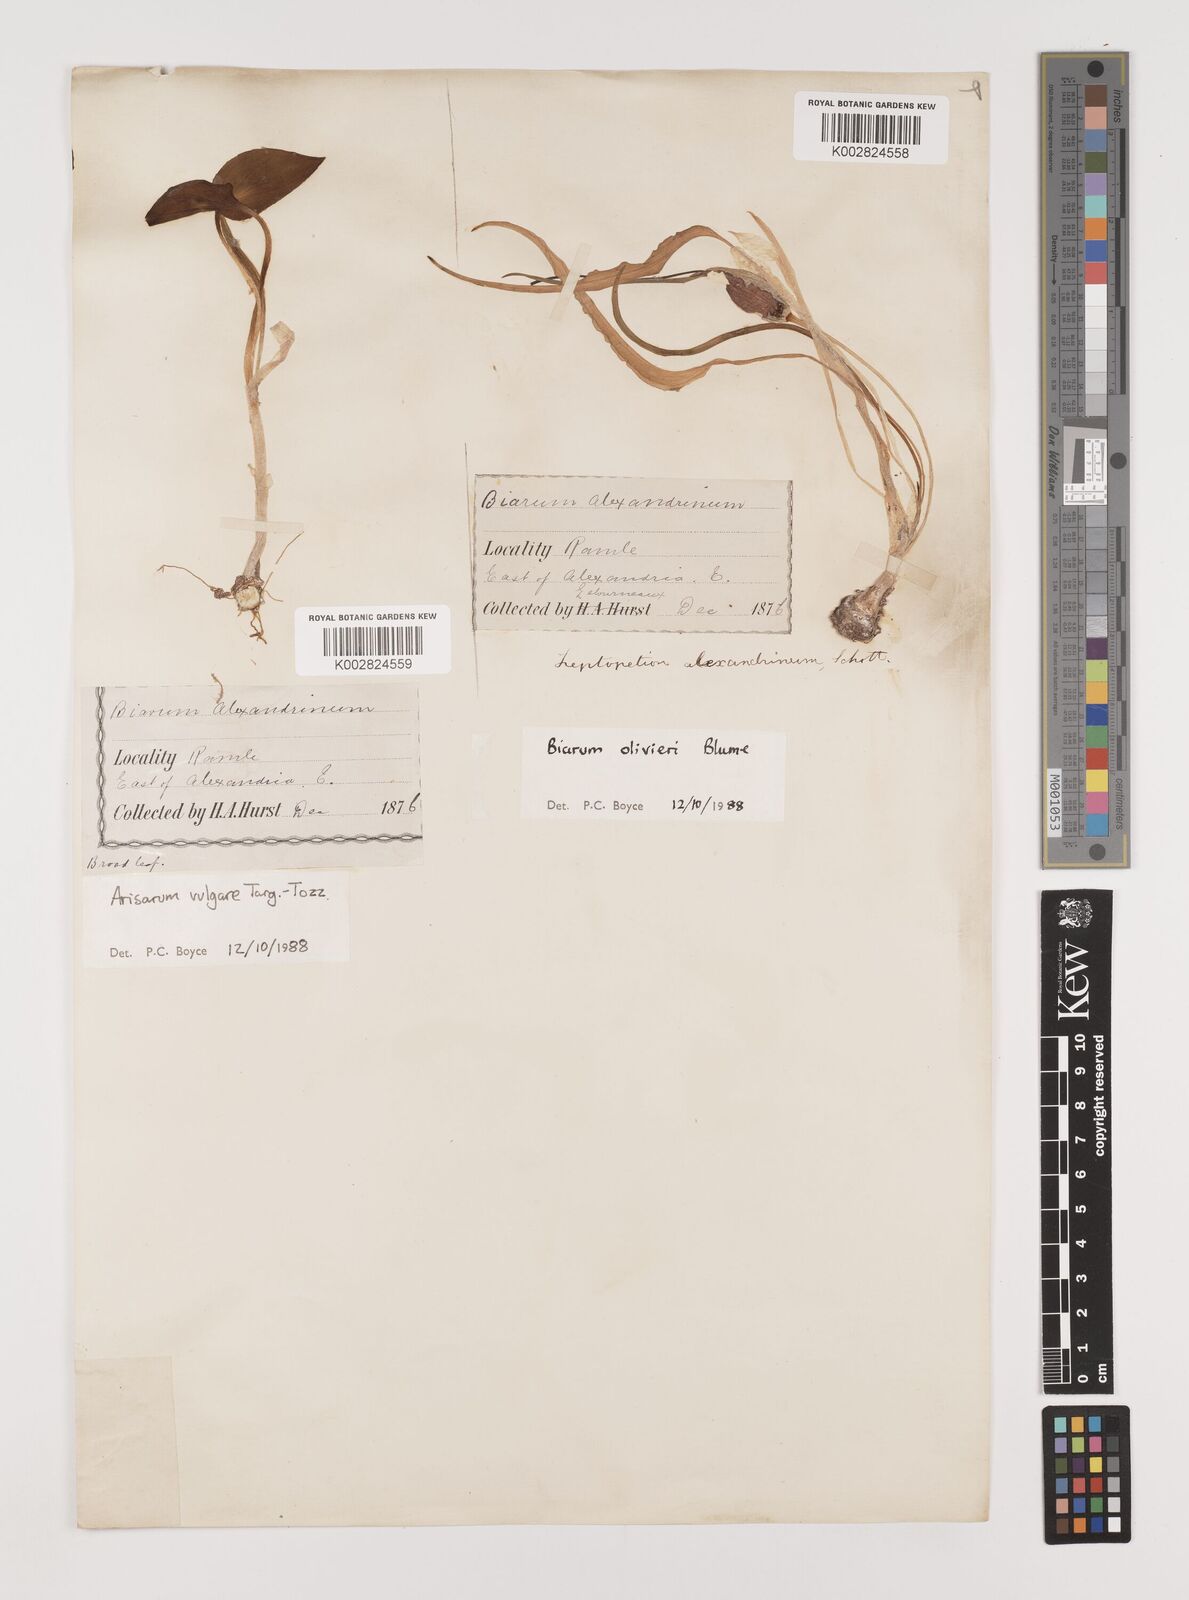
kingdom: Plantae
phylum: Tracheophyta
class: Liliopsida
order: Alismatales
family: Araceae
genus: Biarum
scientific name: Biarum olivieri
